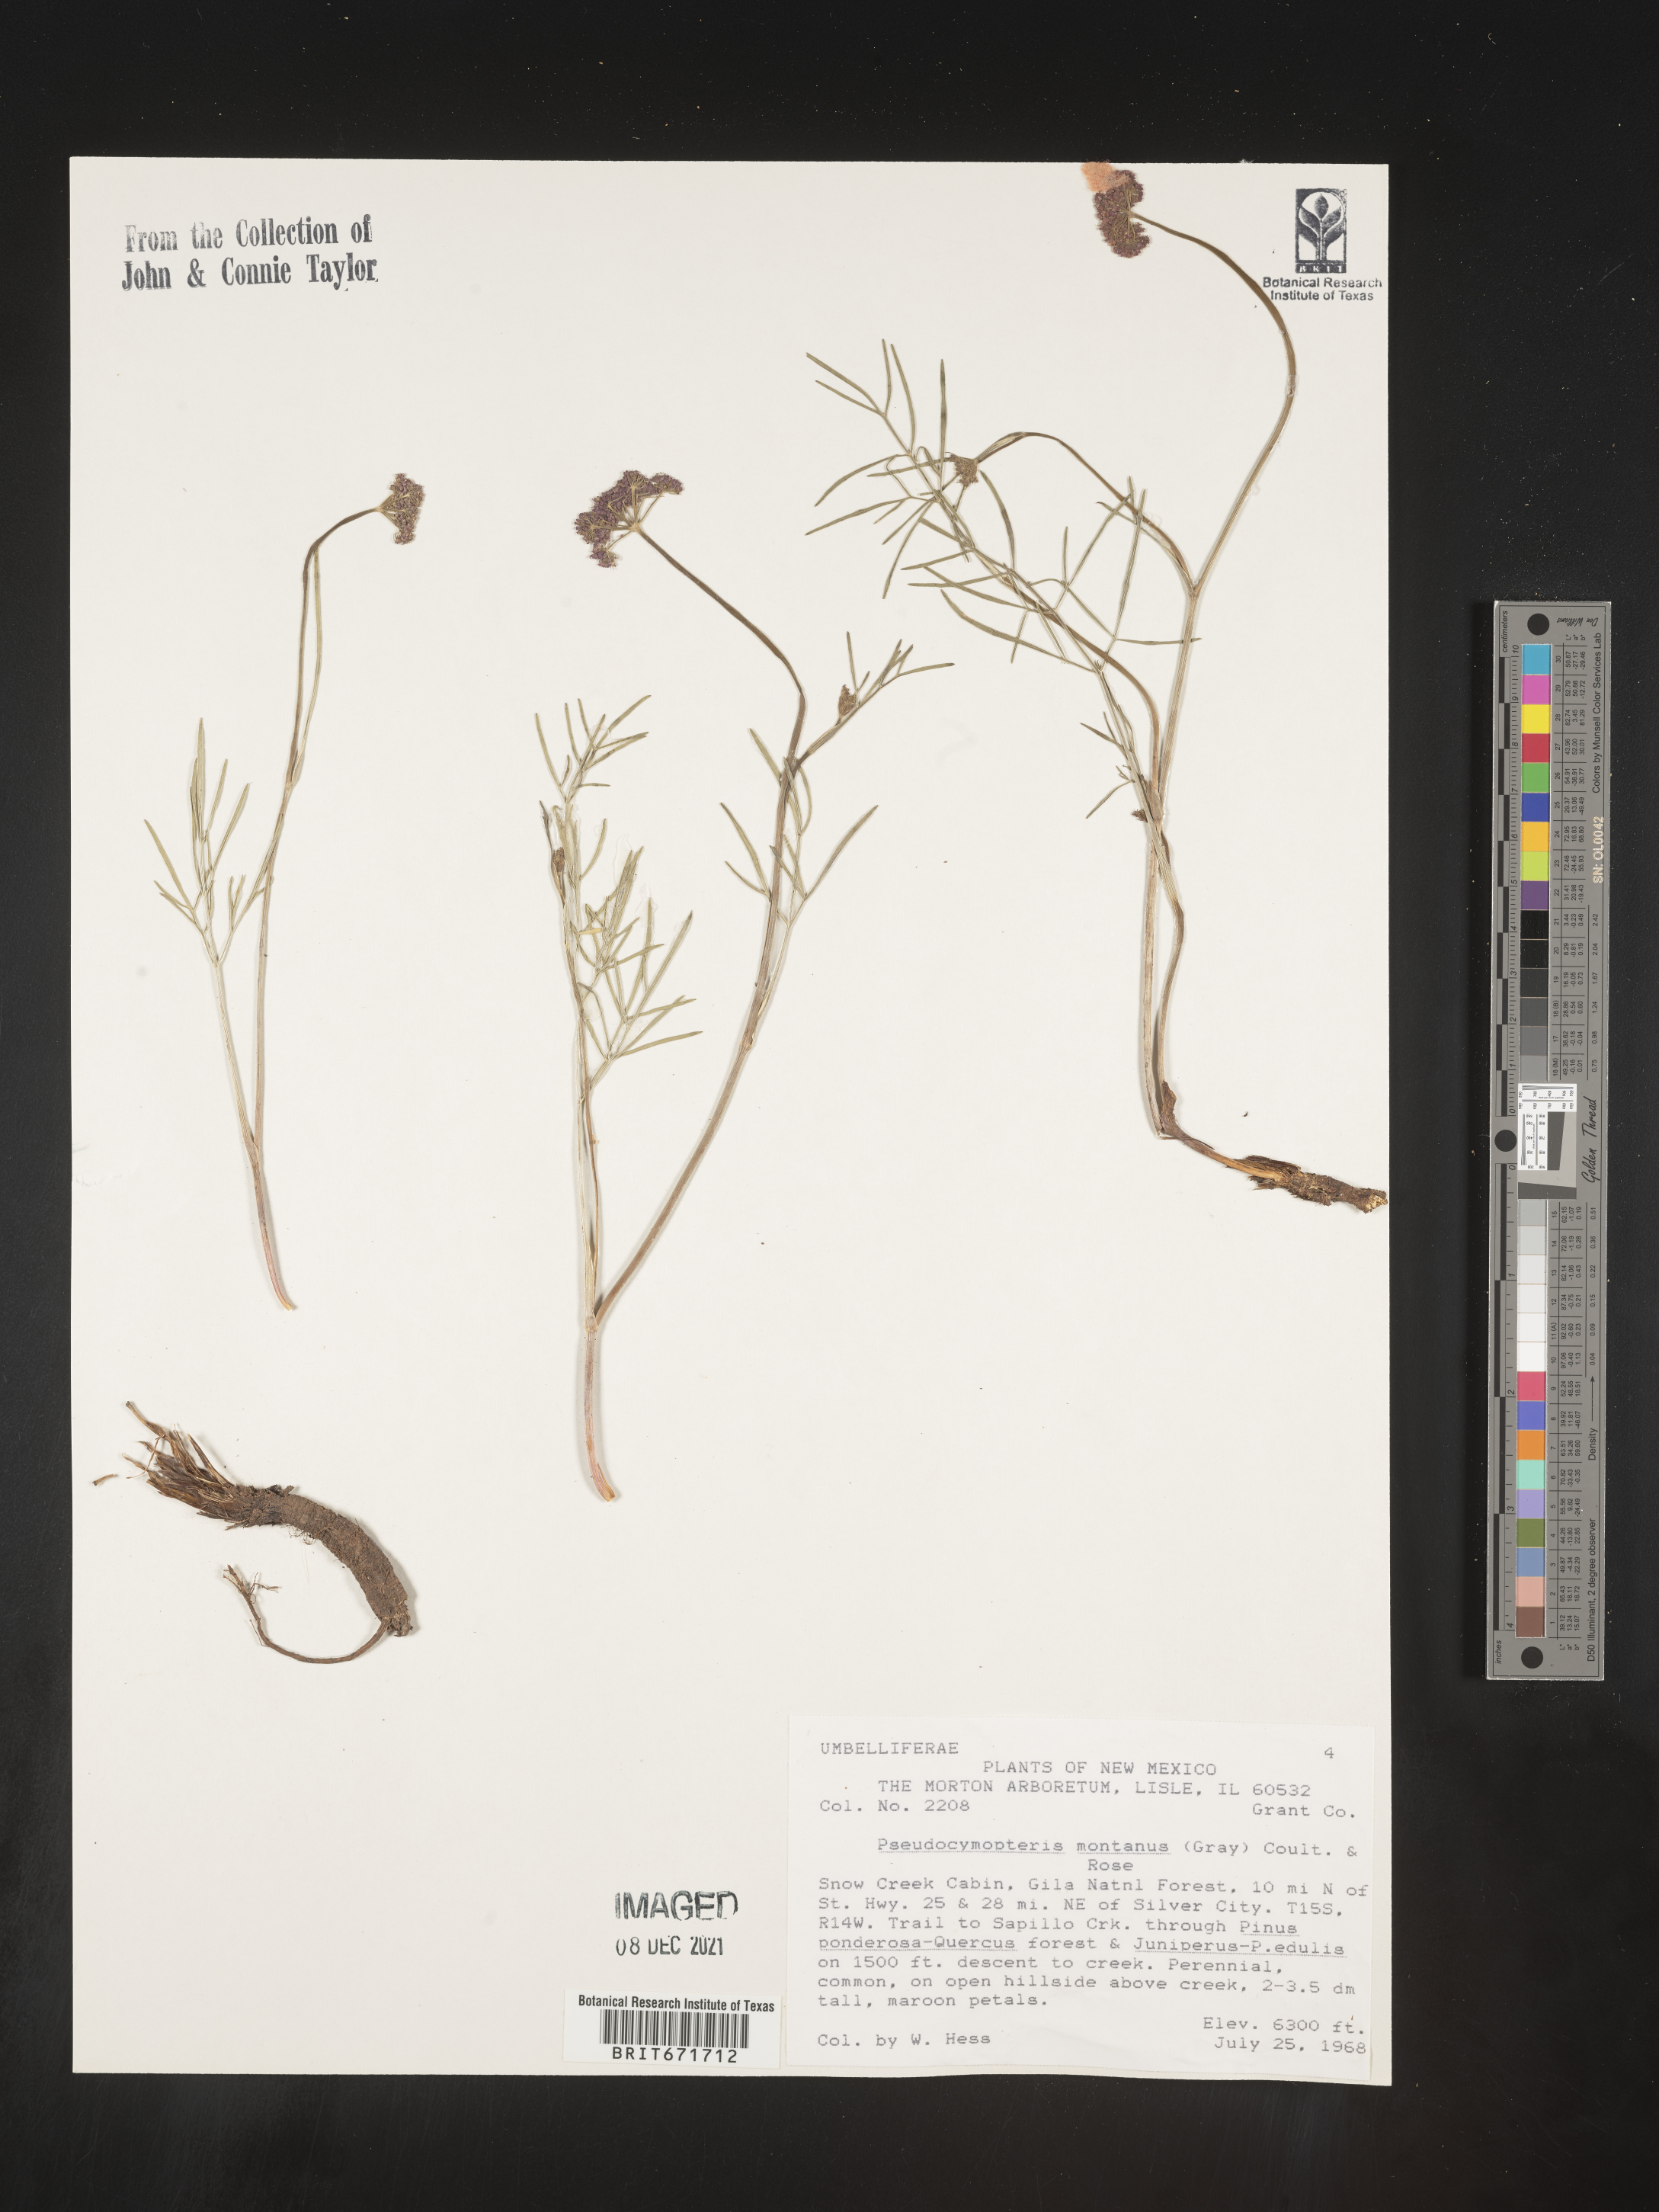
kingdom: Plantae
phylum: Tracheophyta
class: Magnoliopsida
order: Apiales
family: Apiaceae
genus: Cymopterus
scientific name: Cymopterus lemmonii
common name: Lemmon's spring-parsley
